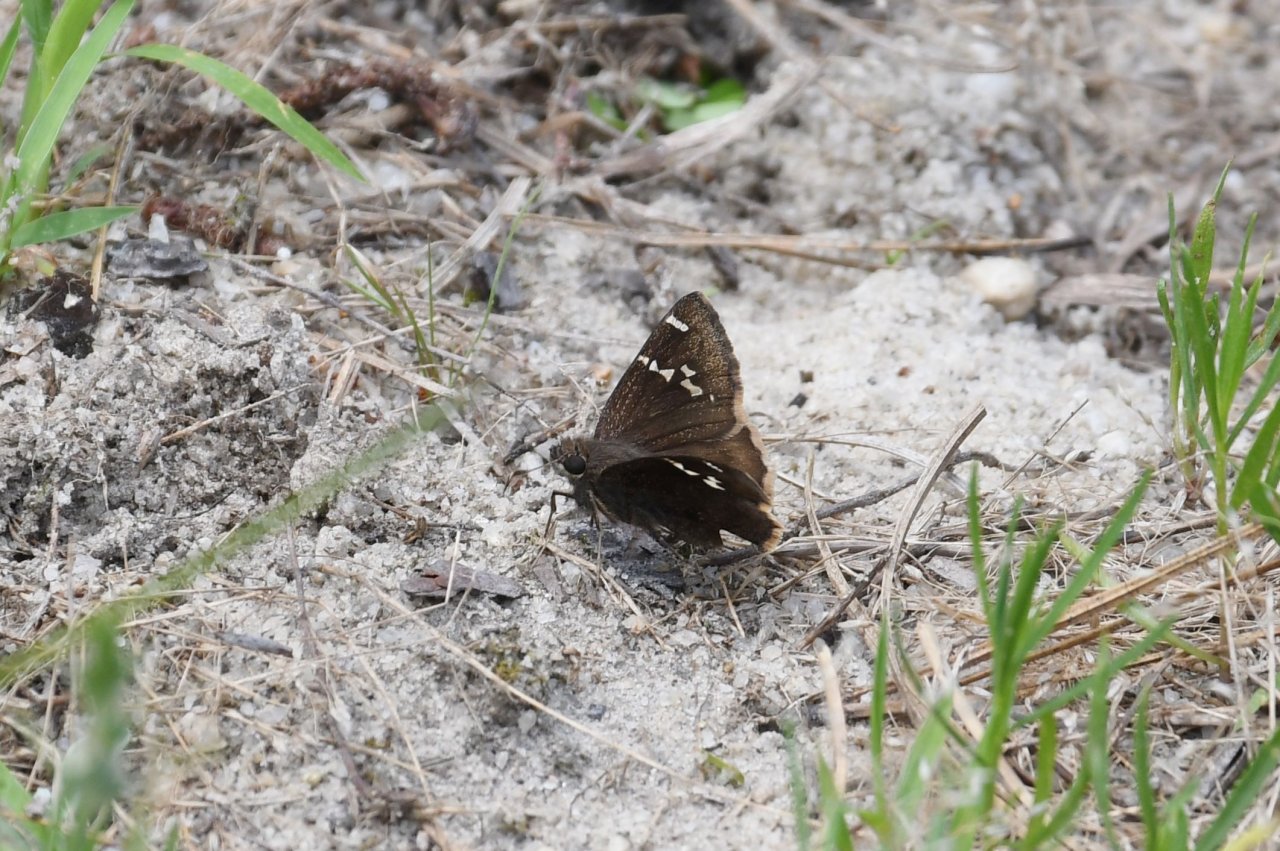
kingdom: Animalia
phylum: Arthropoda
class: Insecta
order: Lepidoptera
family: Hesperiidae
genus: Autochton
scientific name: Autochton
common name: Southern Cloudywing
